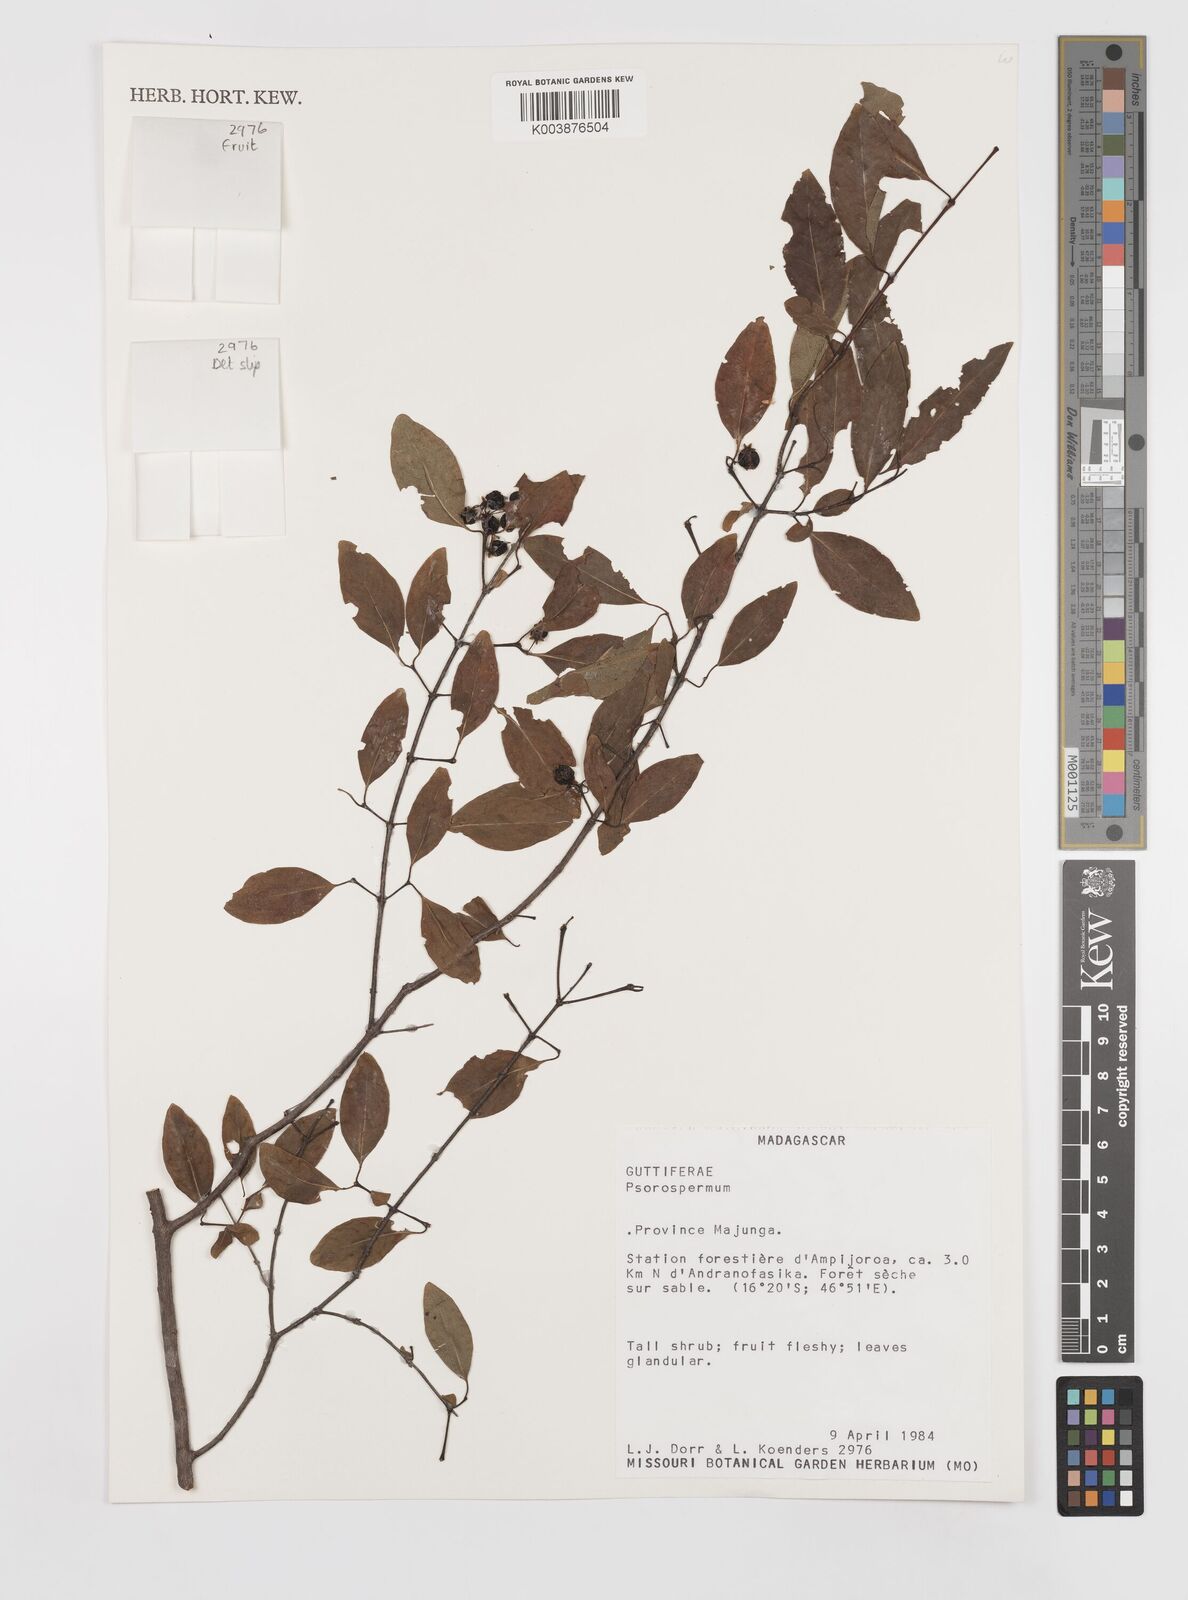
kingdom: Plantae
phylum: Tracheophyta
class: Magnoliopsida
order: Malpighiales
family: Hypericaceae
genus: Psorospermum
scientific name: Psorospermum
